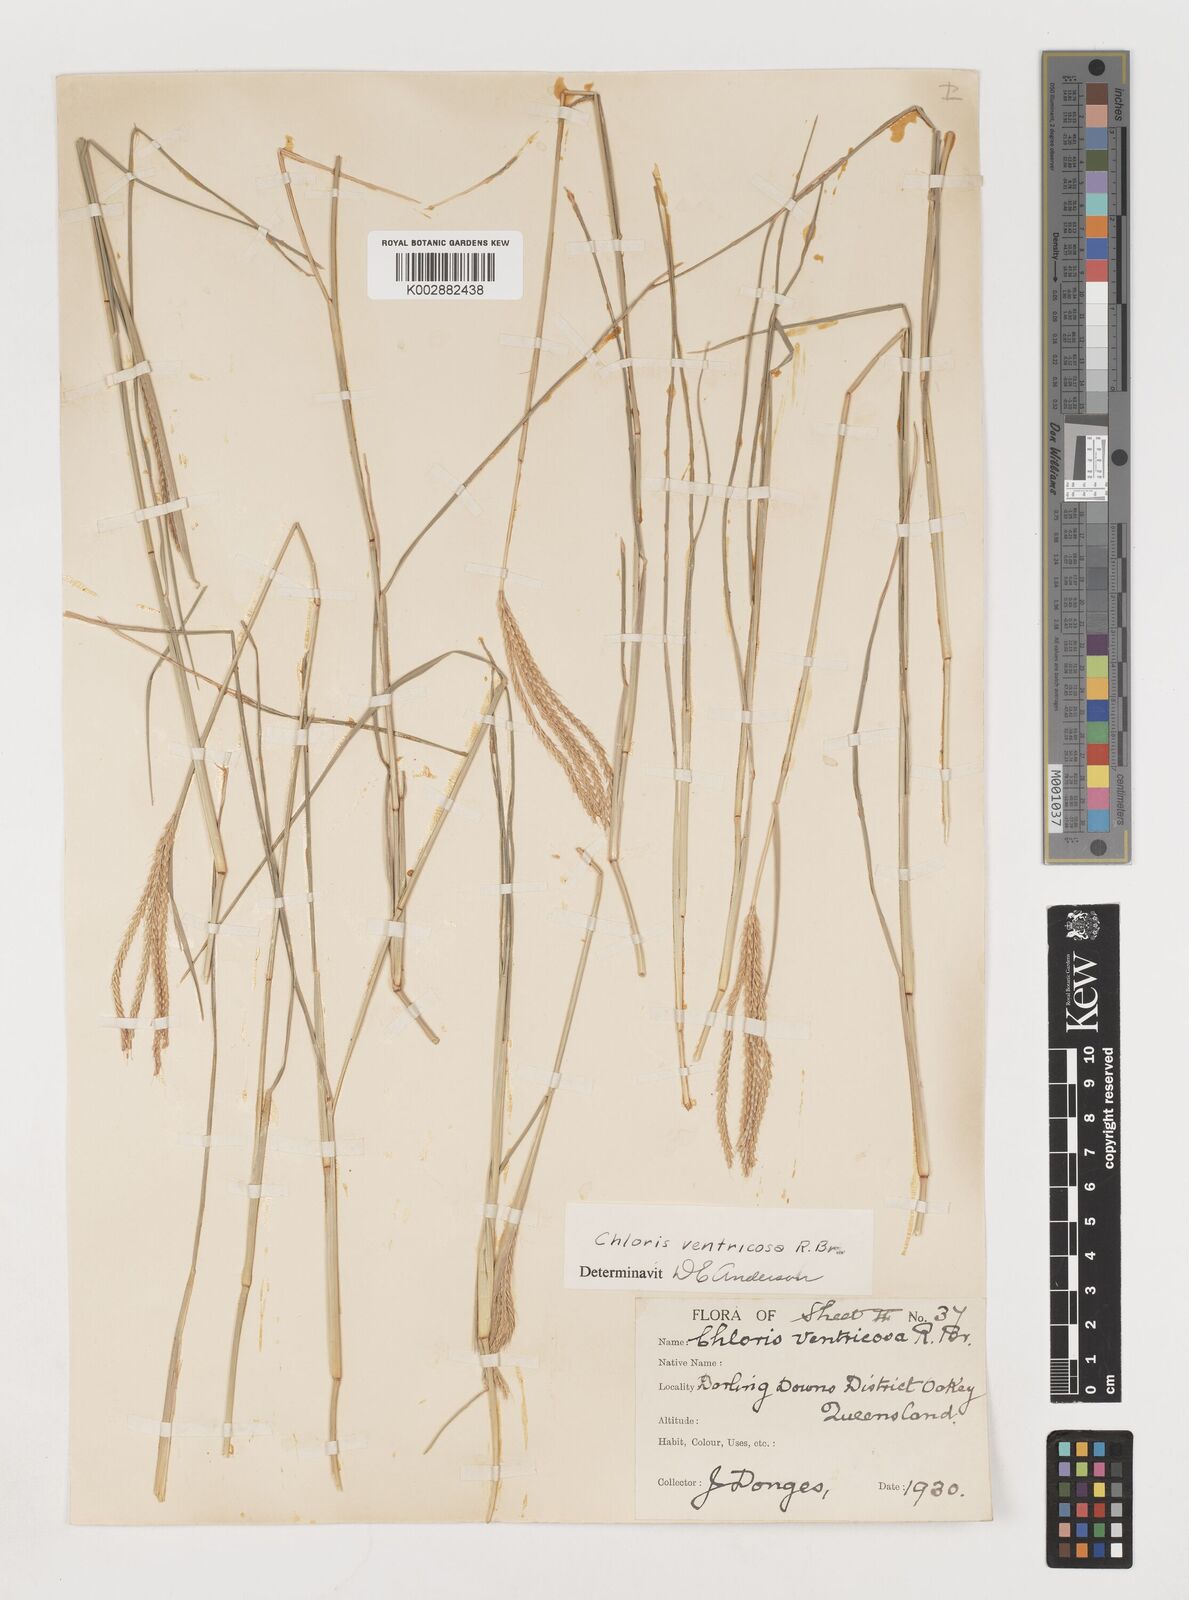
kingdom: Plantae
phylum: Tracheophyta
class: Liliopsida
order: Poales
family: Poaceae
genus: Chloris
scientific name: Chloris ventricosa
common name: Australian windmill grass
